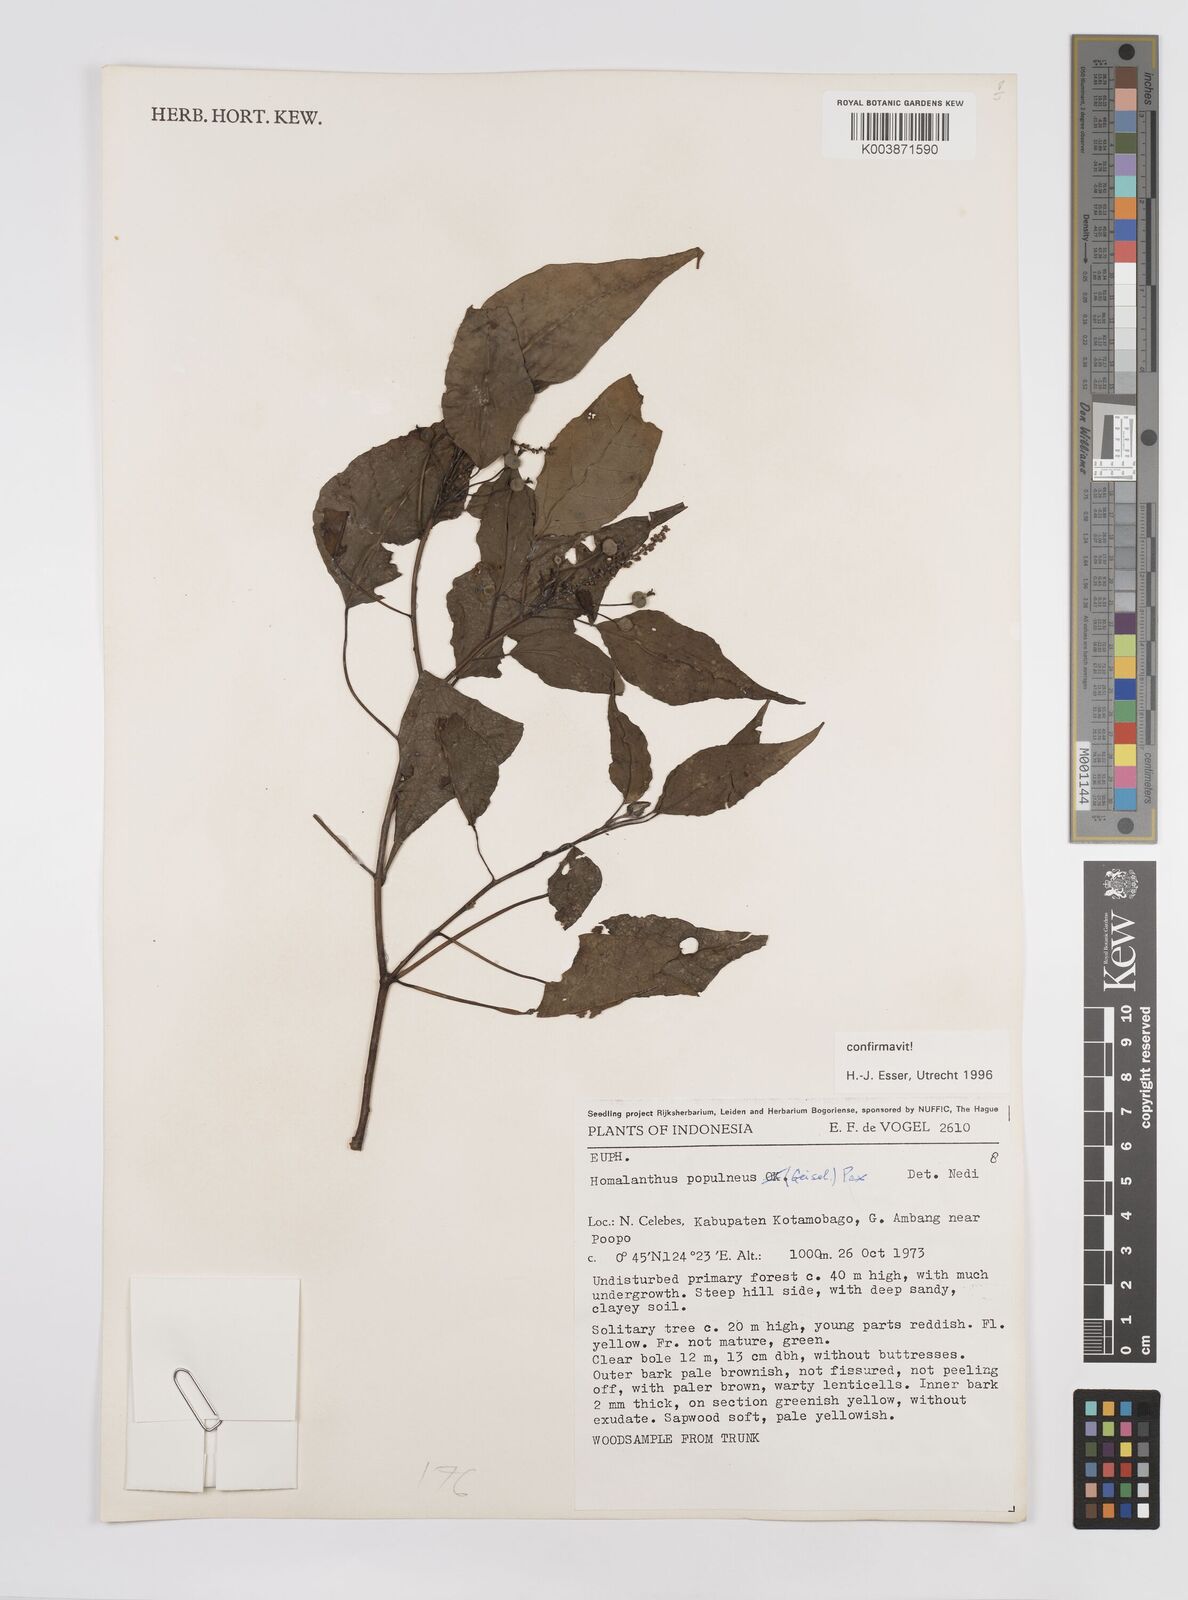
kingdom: Plantae
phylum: Tracheophyta
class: Magnoliopsida
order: Malpighiales
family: Euphorbiaceae
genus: Homalanthus
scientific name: Homalanthus populneus
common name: Spurge
